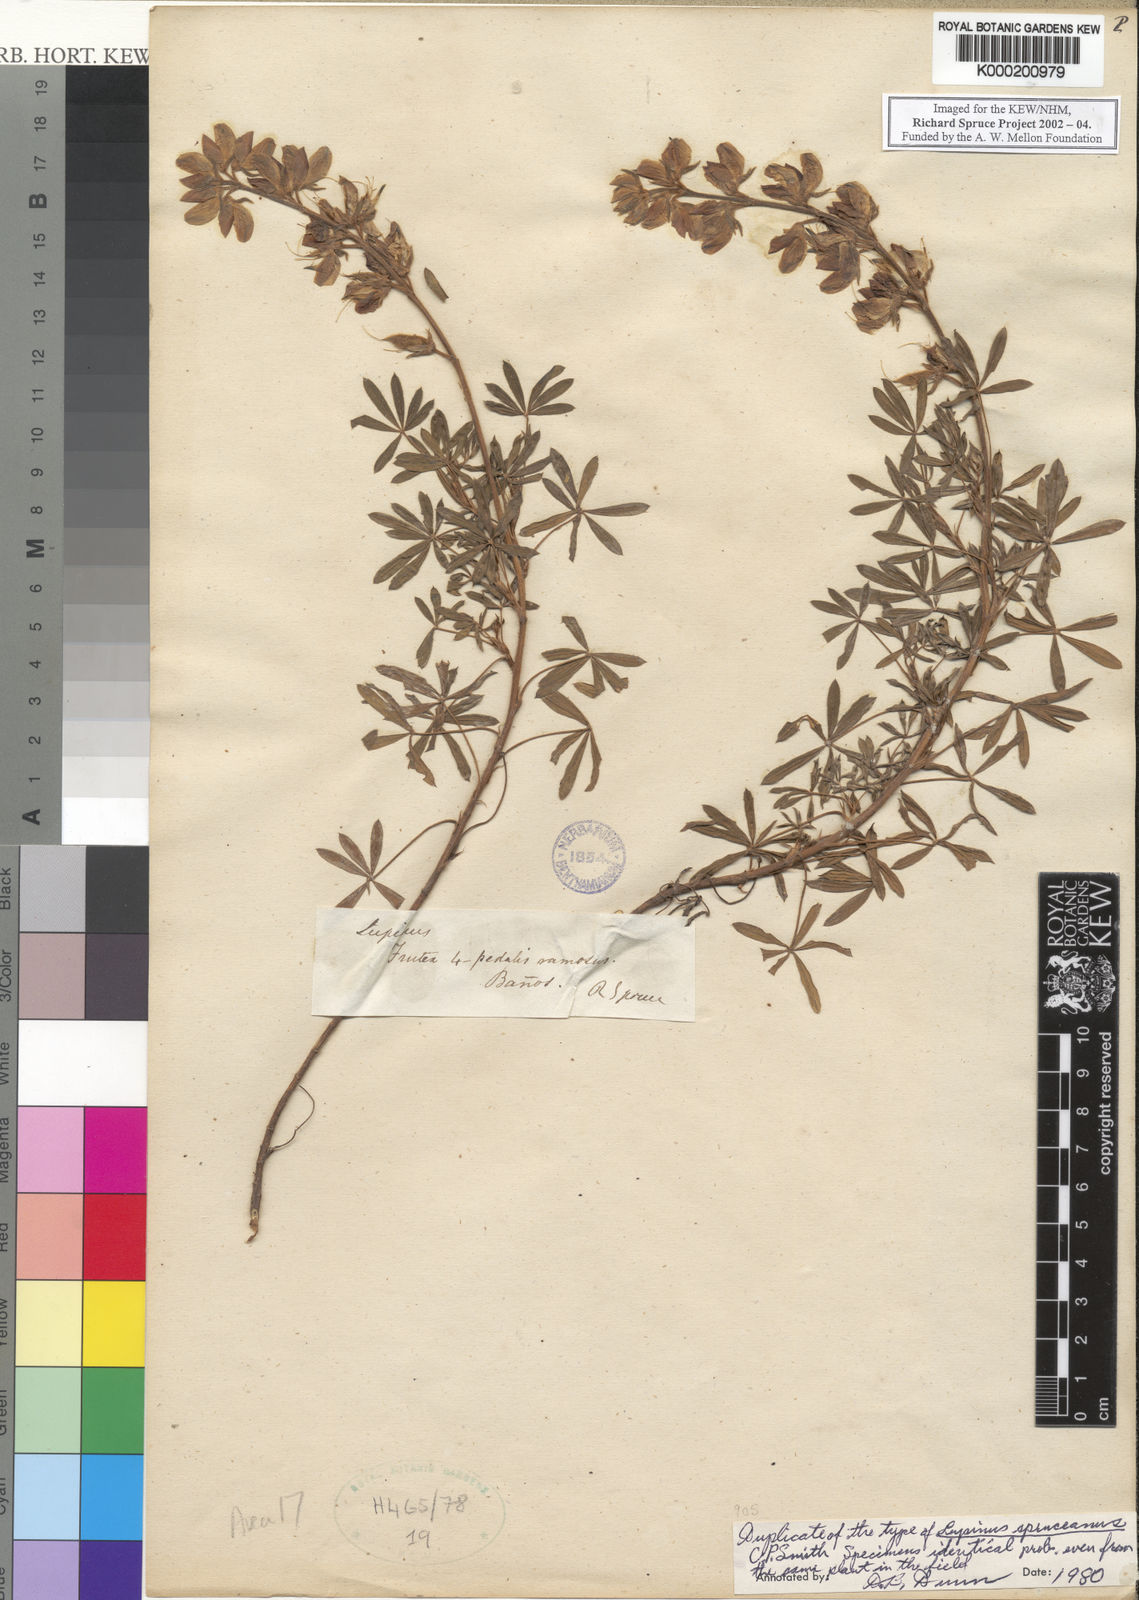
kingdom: Plantae
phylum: Tracheophyta
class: Magnoliopsida
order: Fabales
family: Fabaceae
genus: Lupinus
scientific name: Lupinus spruceanus
